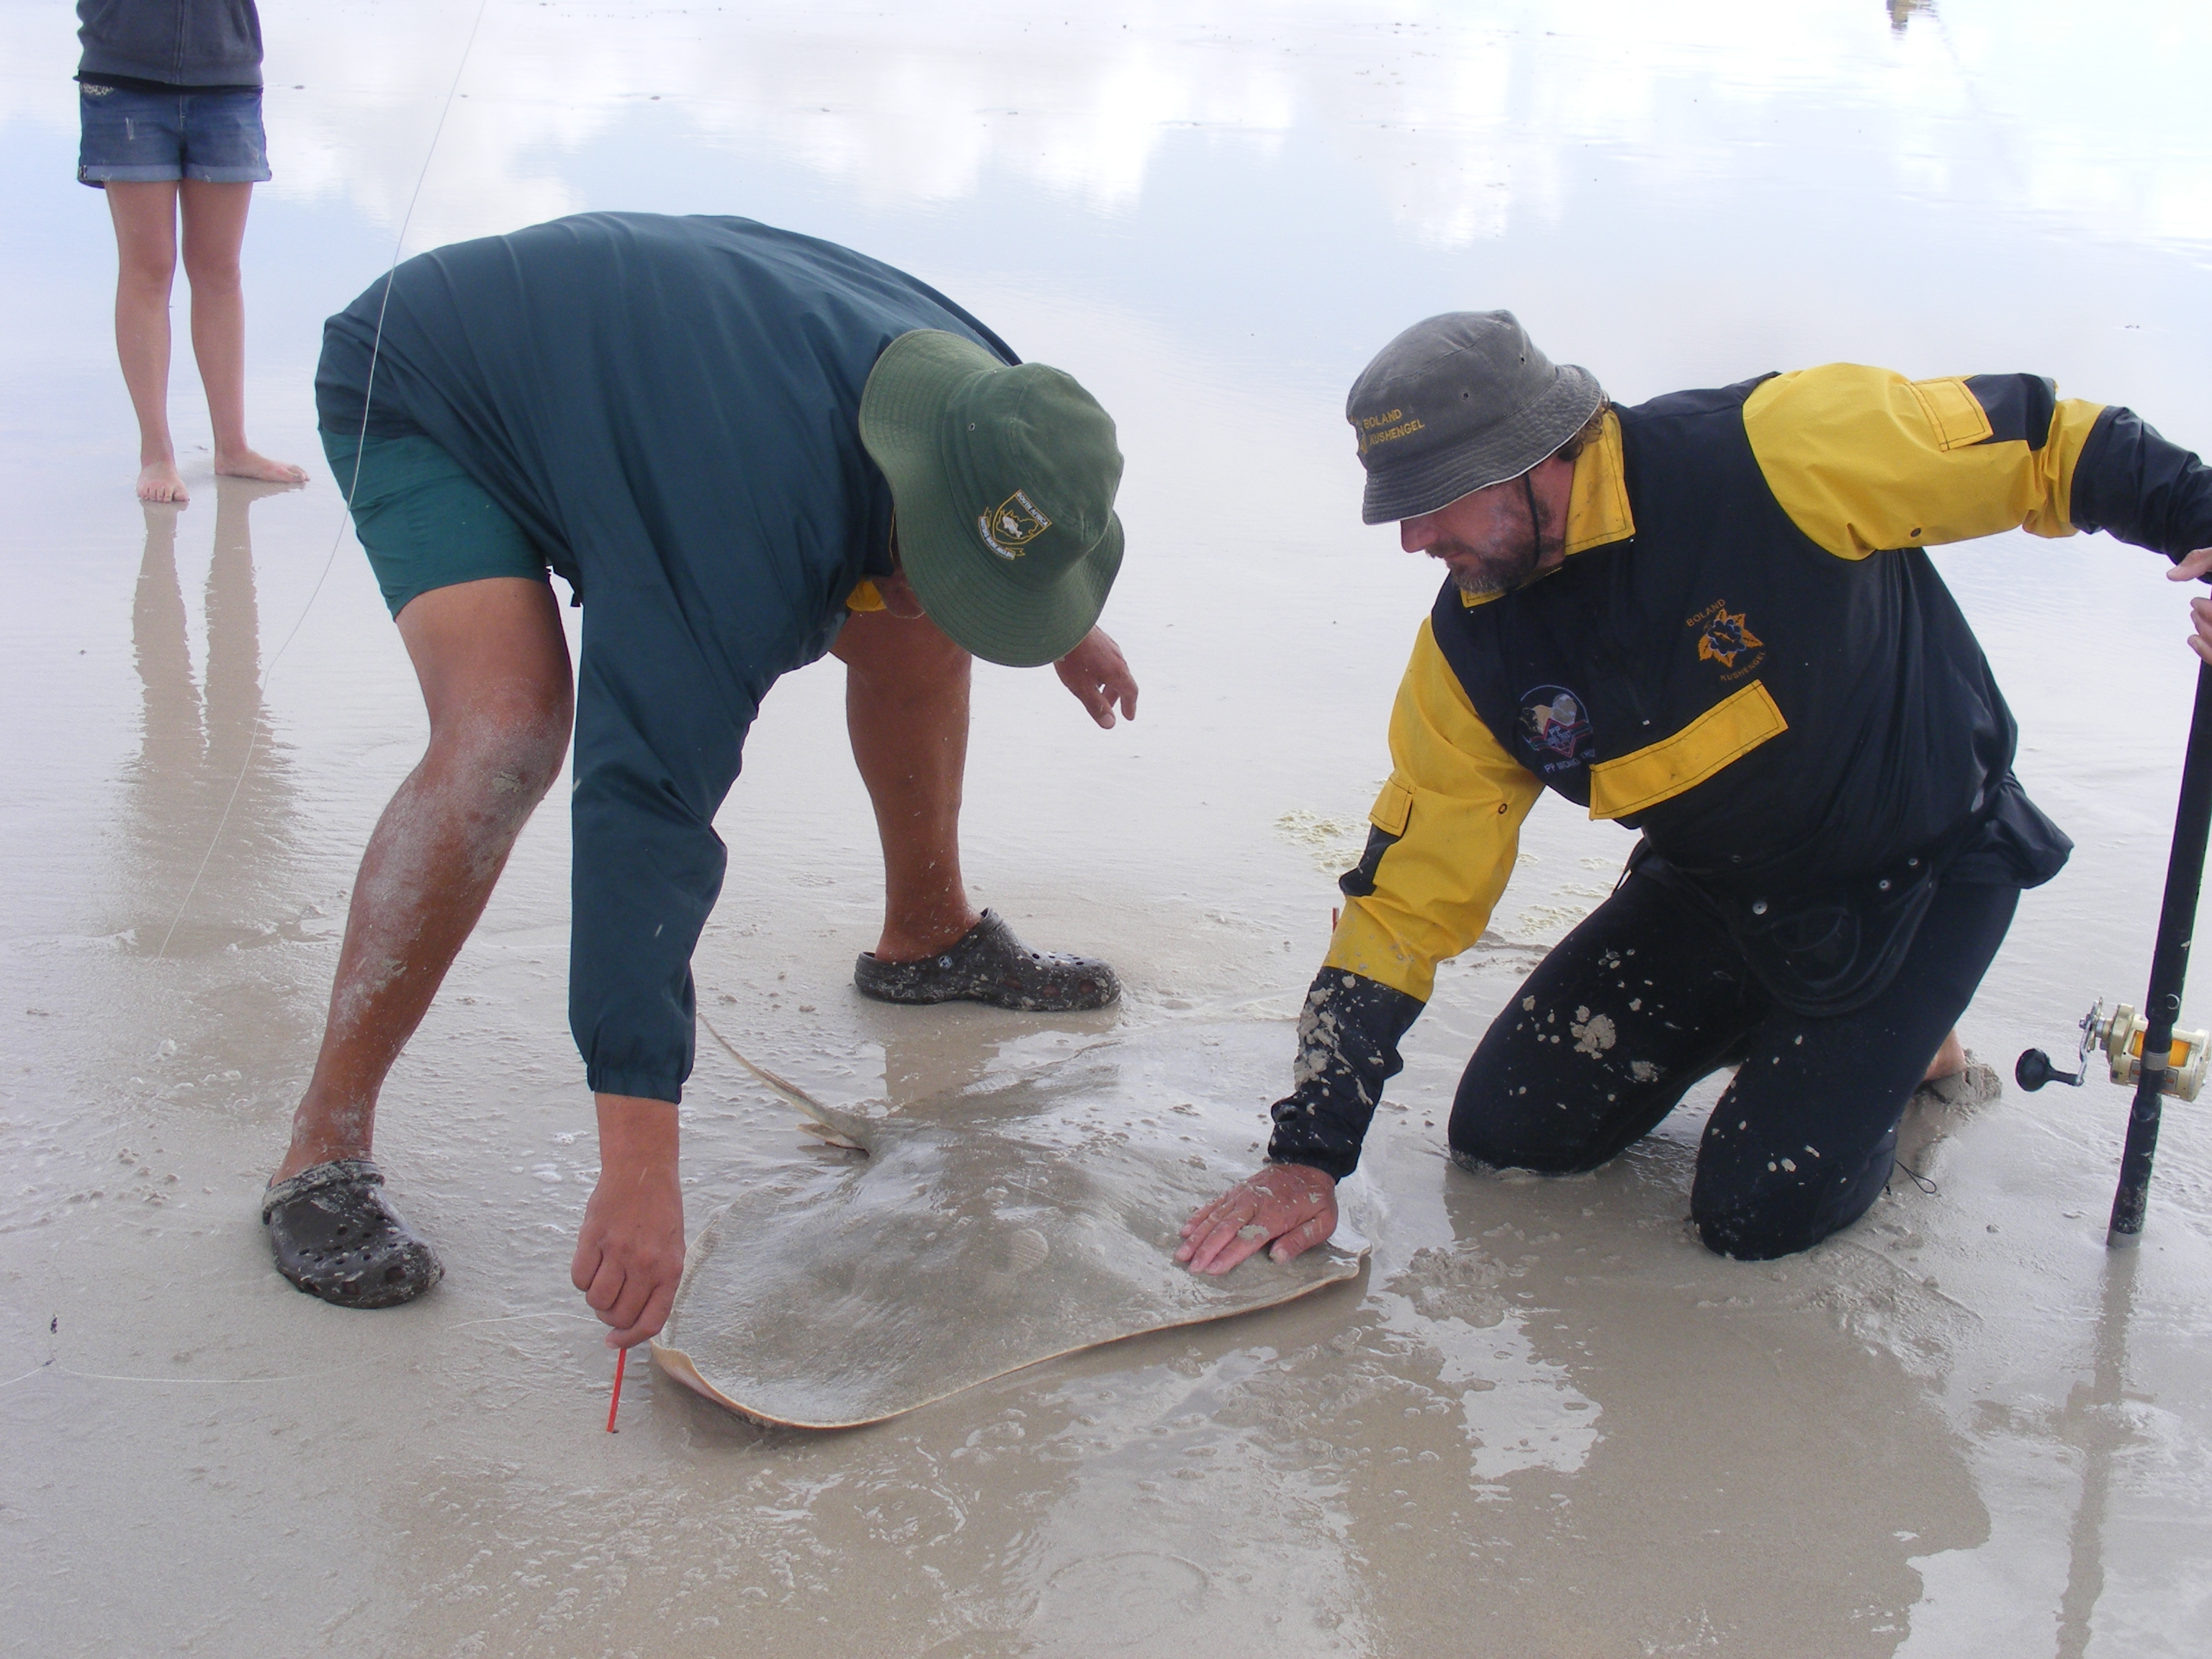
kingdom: Animalia
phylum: Chordata
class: Elasmobranchii
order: Myliobatiformes
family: Gymnuridae
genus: Gymnura
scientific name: Gymnura natalensis
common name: Backwater butterfly ray
